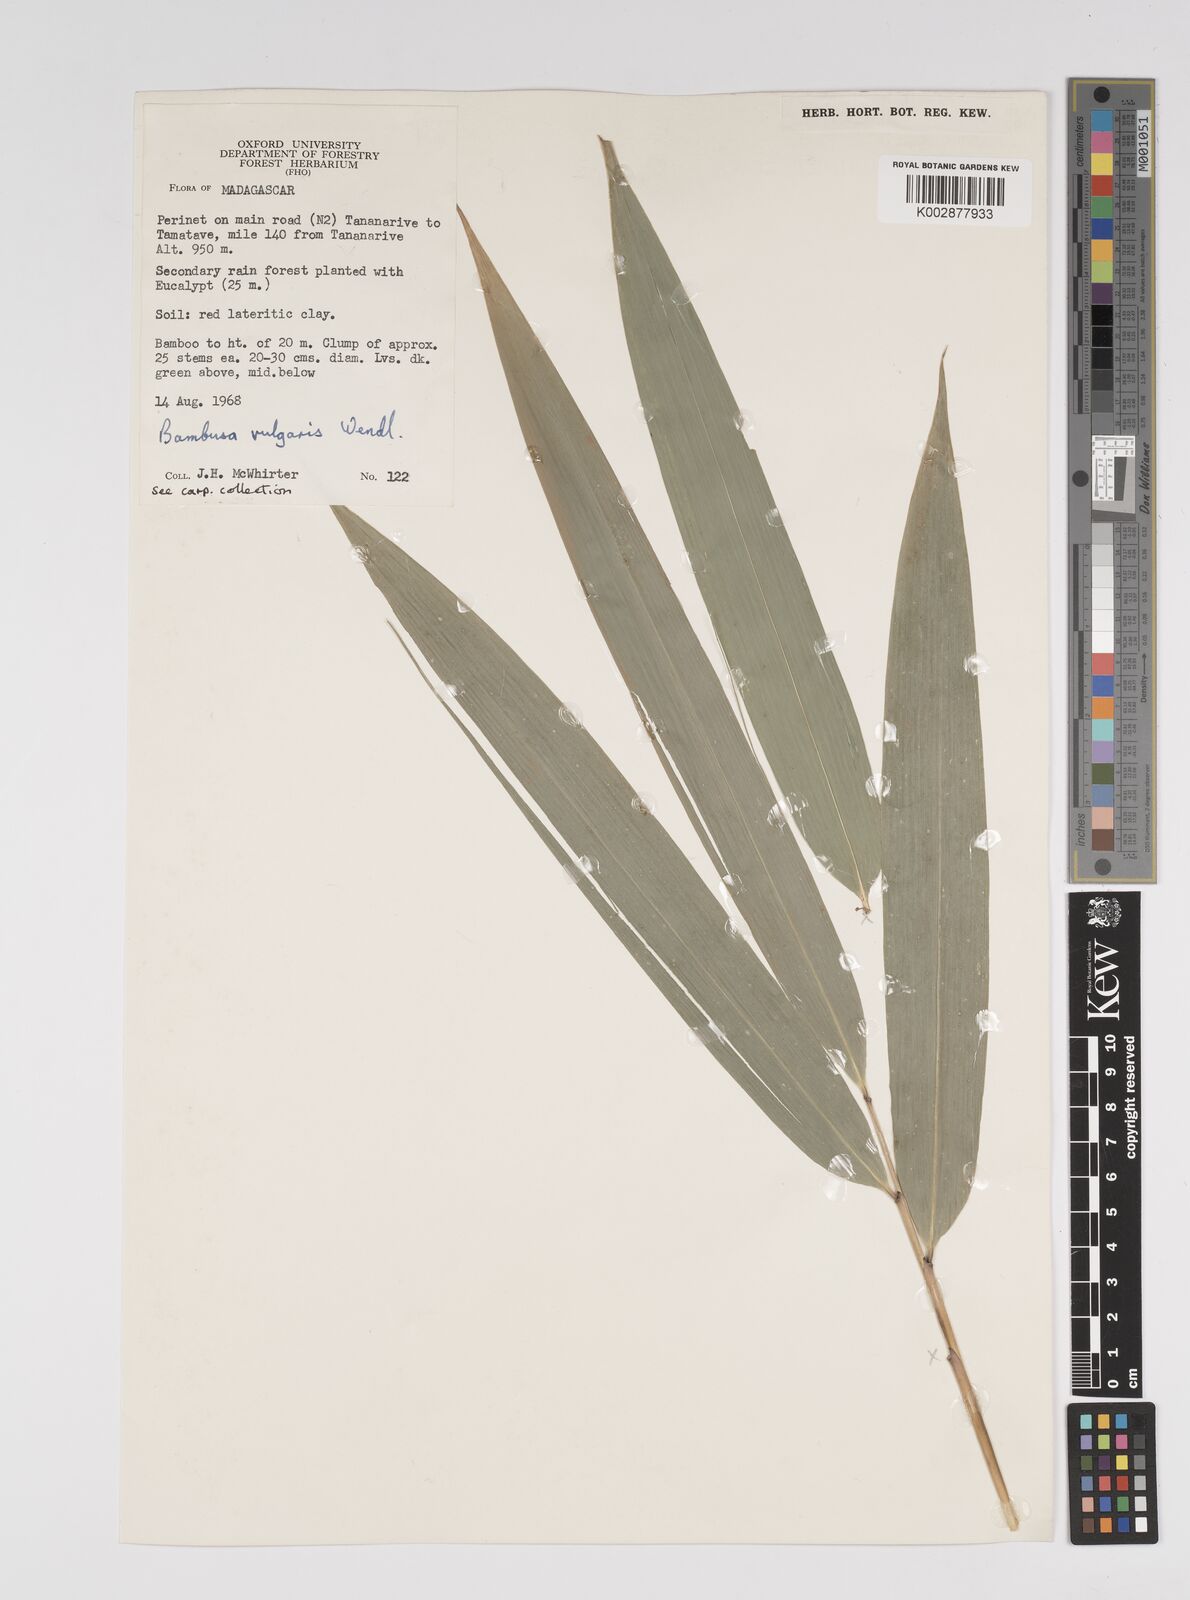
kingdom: Plantae
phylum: Tracheophyta
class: Liliopsida
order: Poales
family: Poaceae
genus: Bambusa
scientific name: Bambusa vulgaris
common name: Common bamboo
